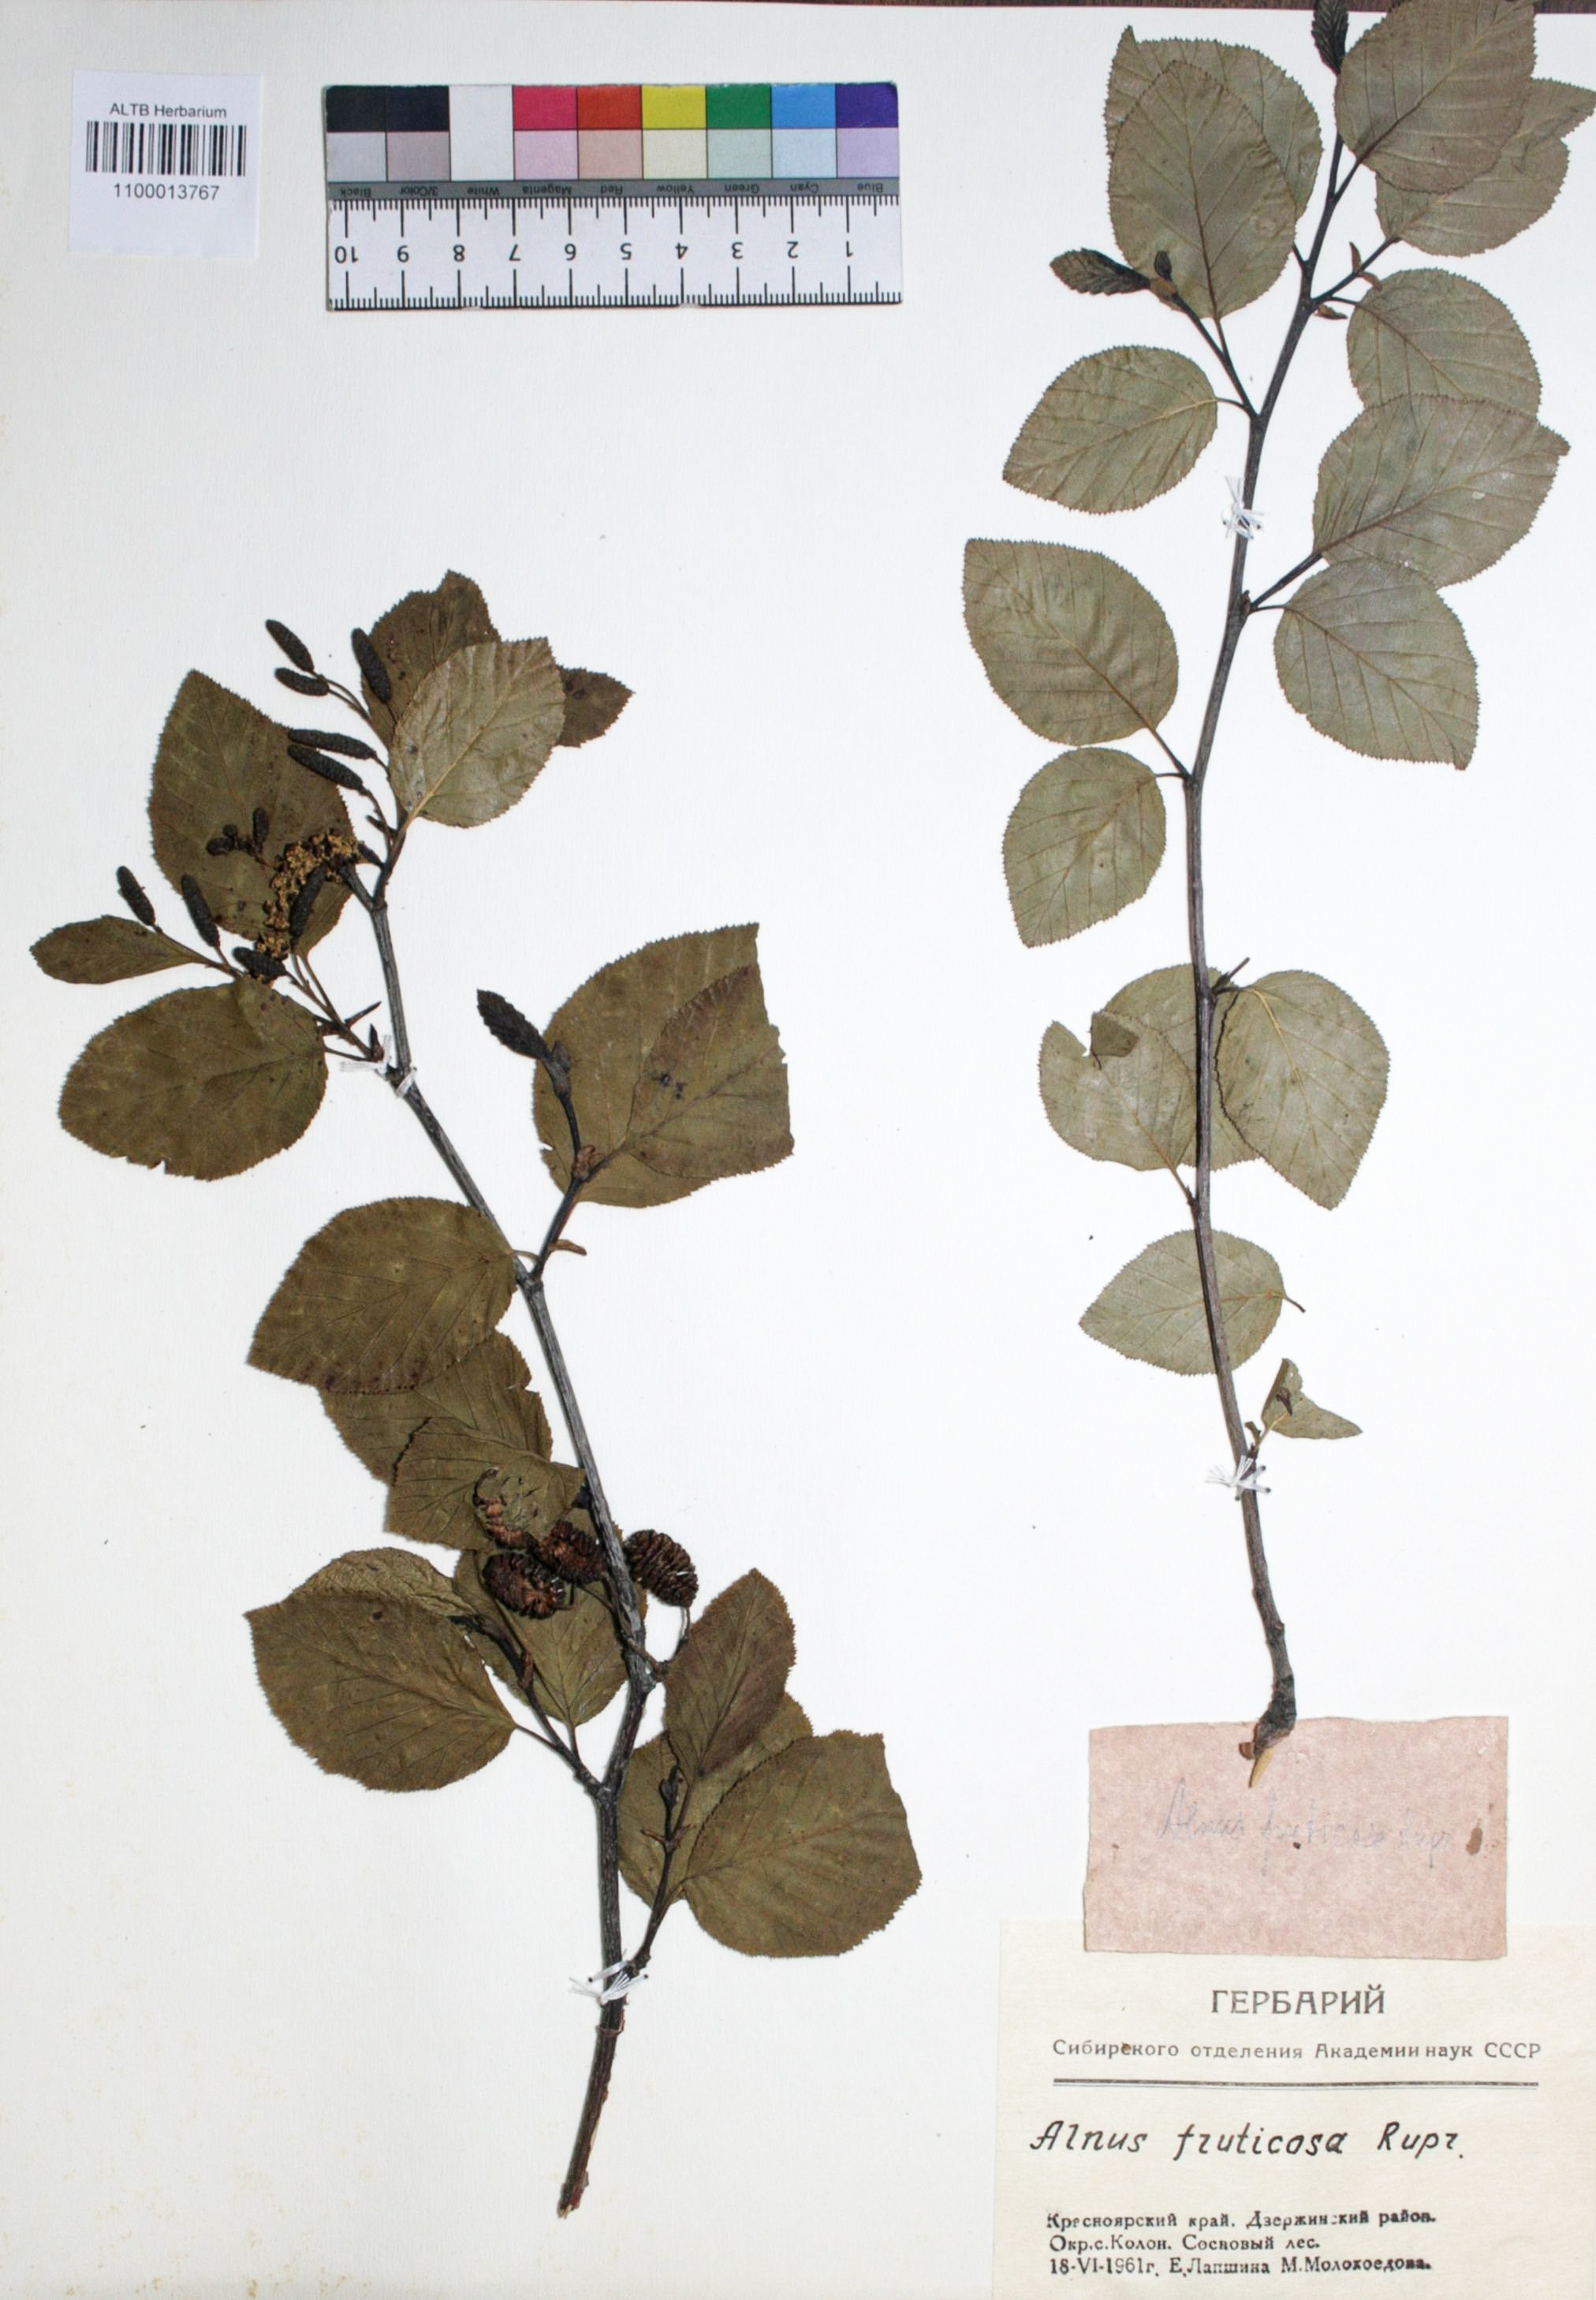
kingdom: Plantae
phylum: Tracheophyta
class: Magnoliopsida
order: Fagales
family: Betulaceae
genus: Alnus
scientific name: Alnus alnobetula
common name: Green alder
